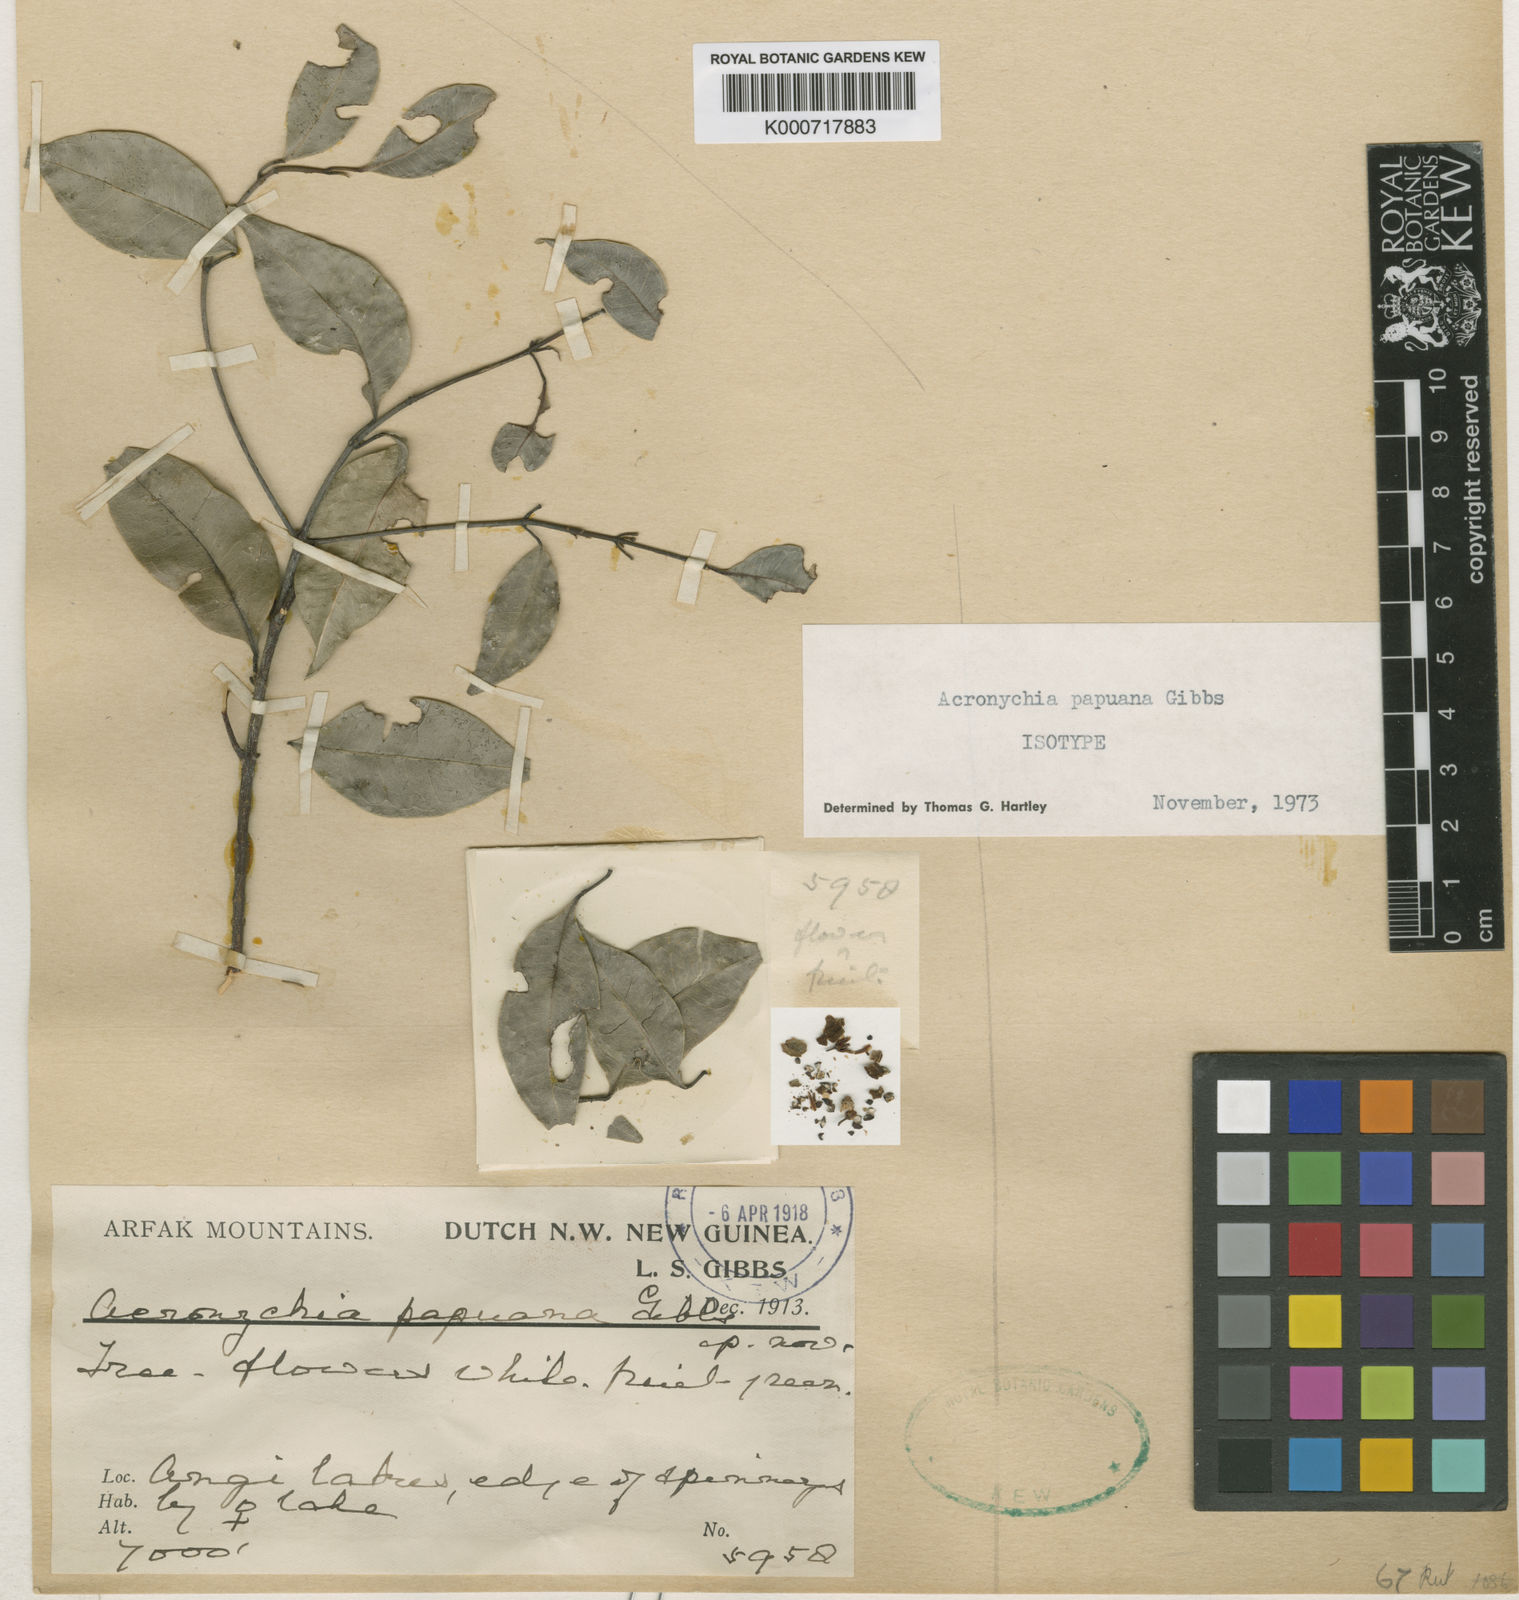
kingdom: Plantae
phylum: Tracheophyta
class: Magnoliopsida
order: Sapindales
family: Rutaceae
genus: Acronychia
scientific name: Acronychia papuana
